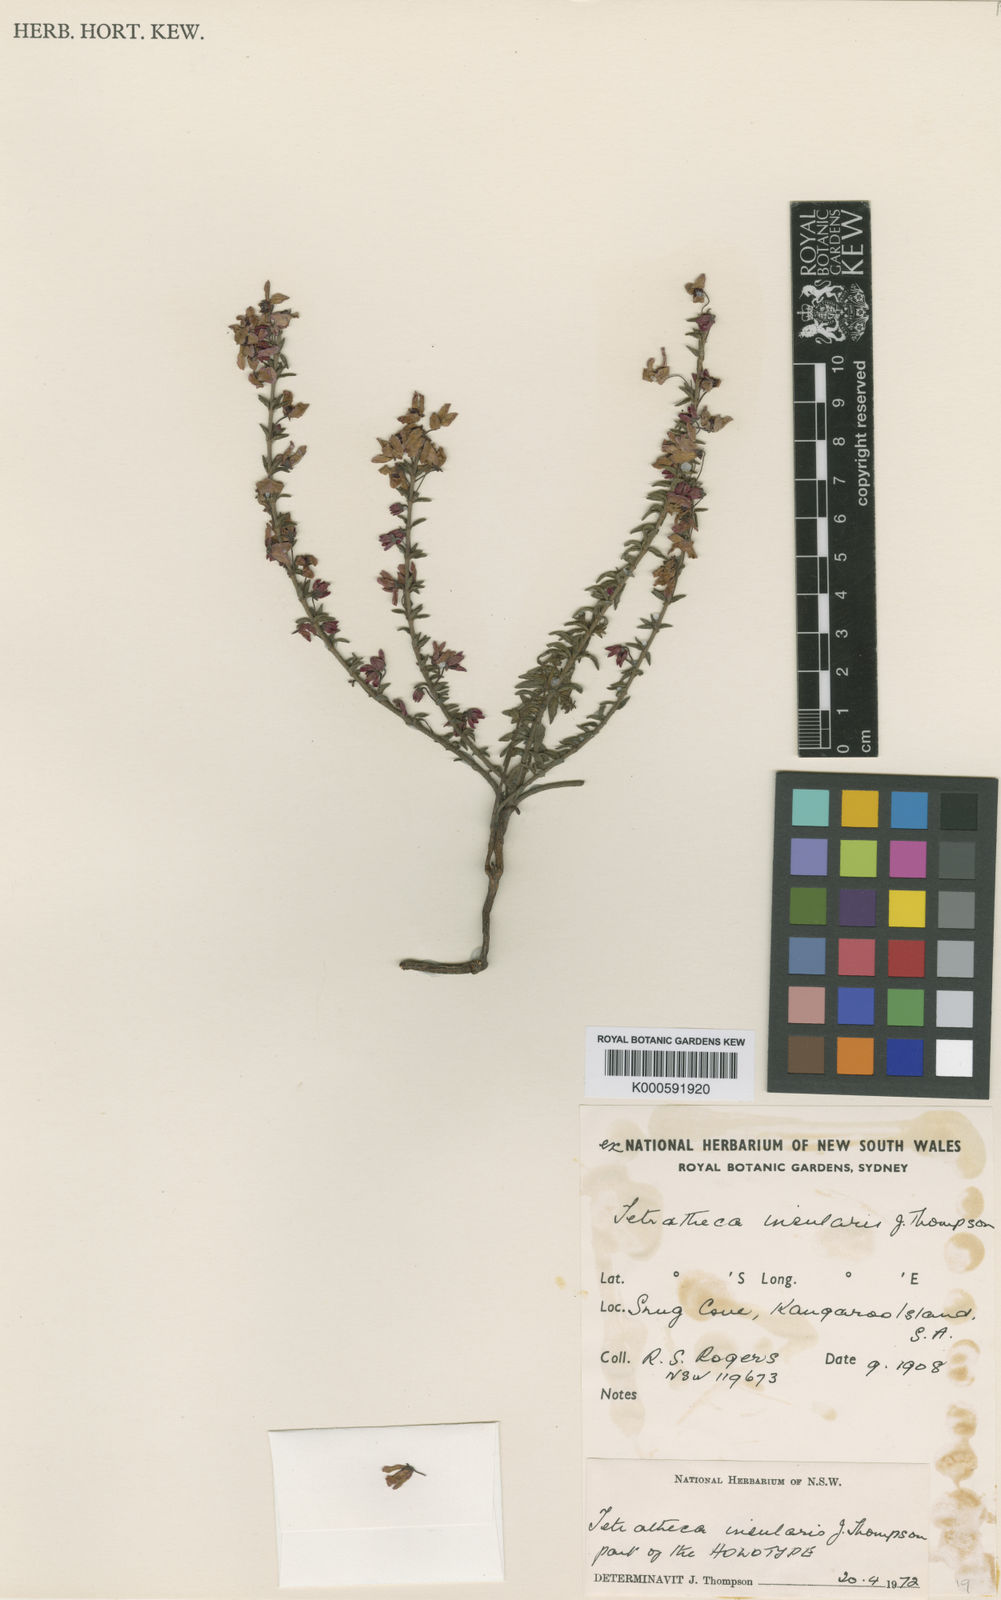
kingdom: Plantae
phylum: Tracheophyta
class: Magnoliopsida
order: Oxalidales
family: Elaeocarpaceae
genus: Tetratheca
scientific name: Tetratheca insularis
